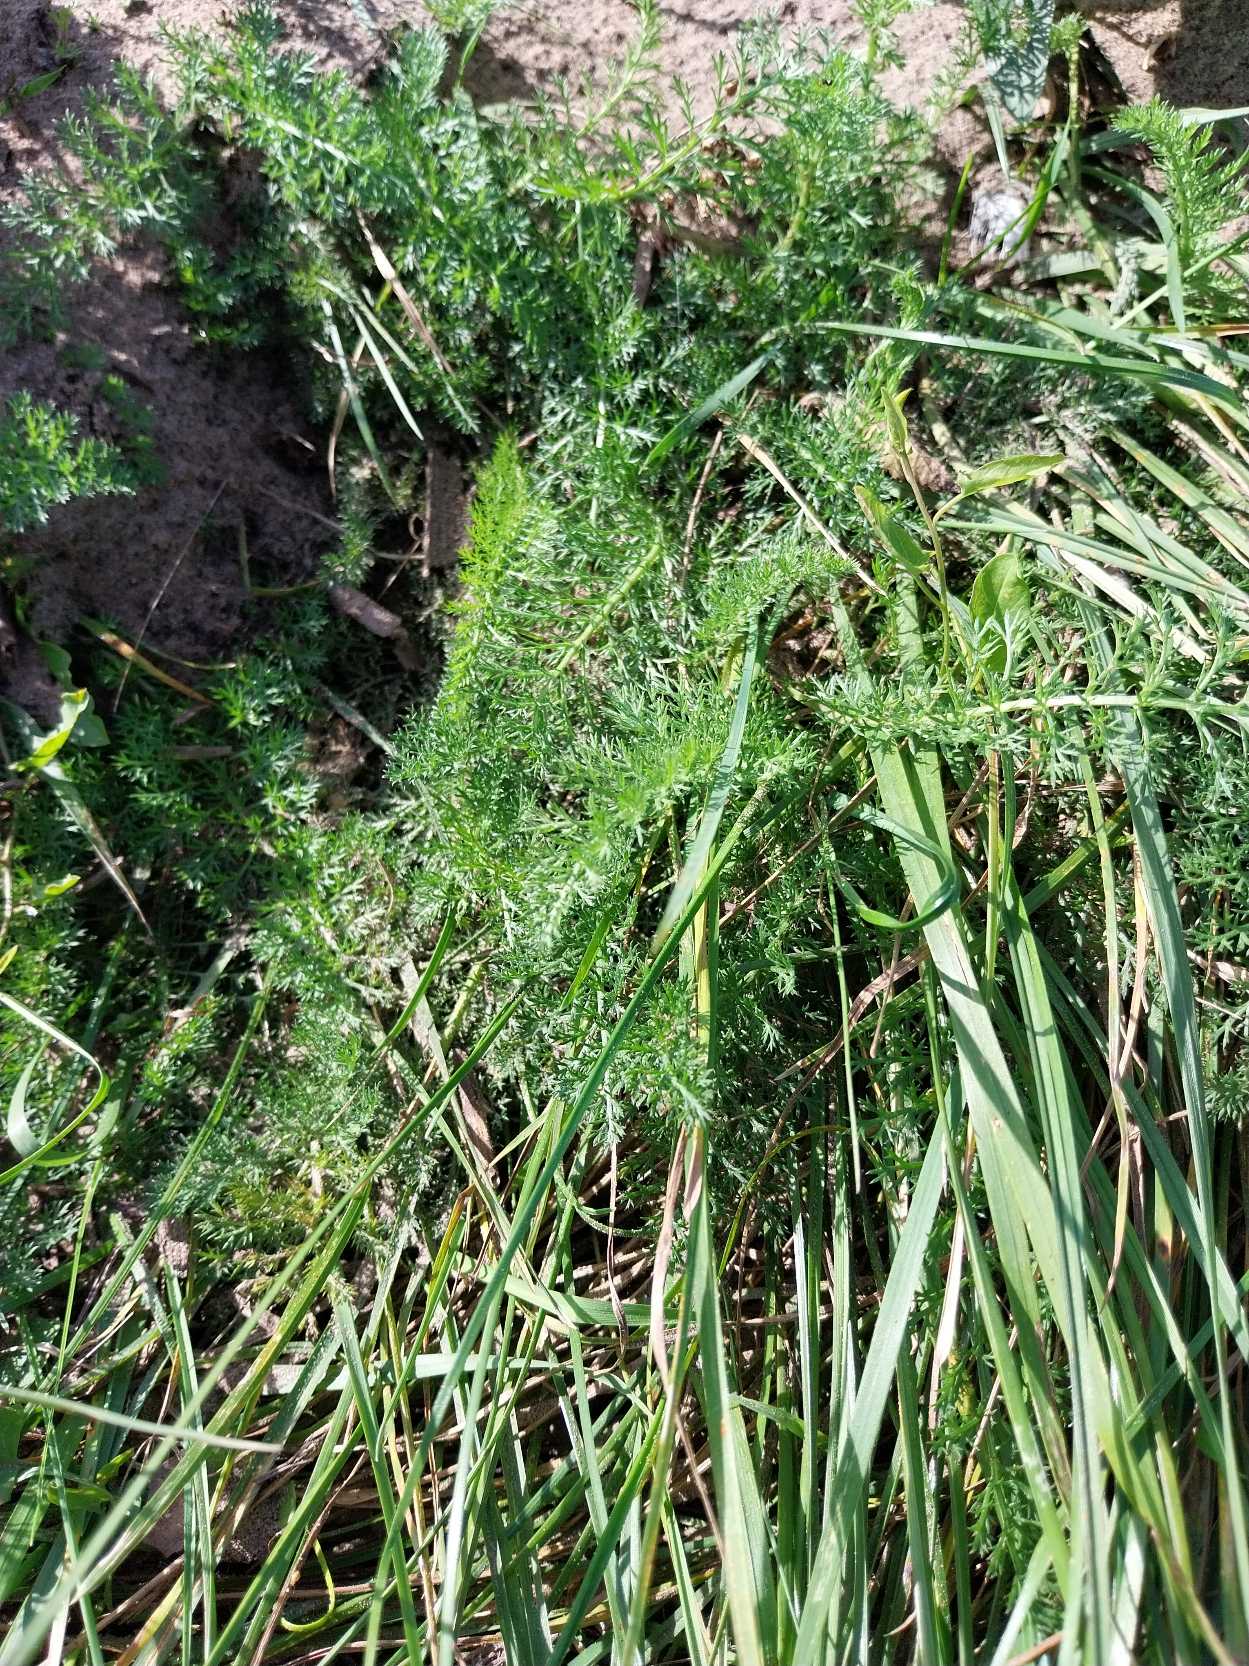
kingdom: Plantae
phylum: Tracheophyta
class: Magnoliopsida
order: Asterales
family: Asteraceae
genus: Achillea
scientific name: Achillea millefolium
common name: Almindelig røllike
